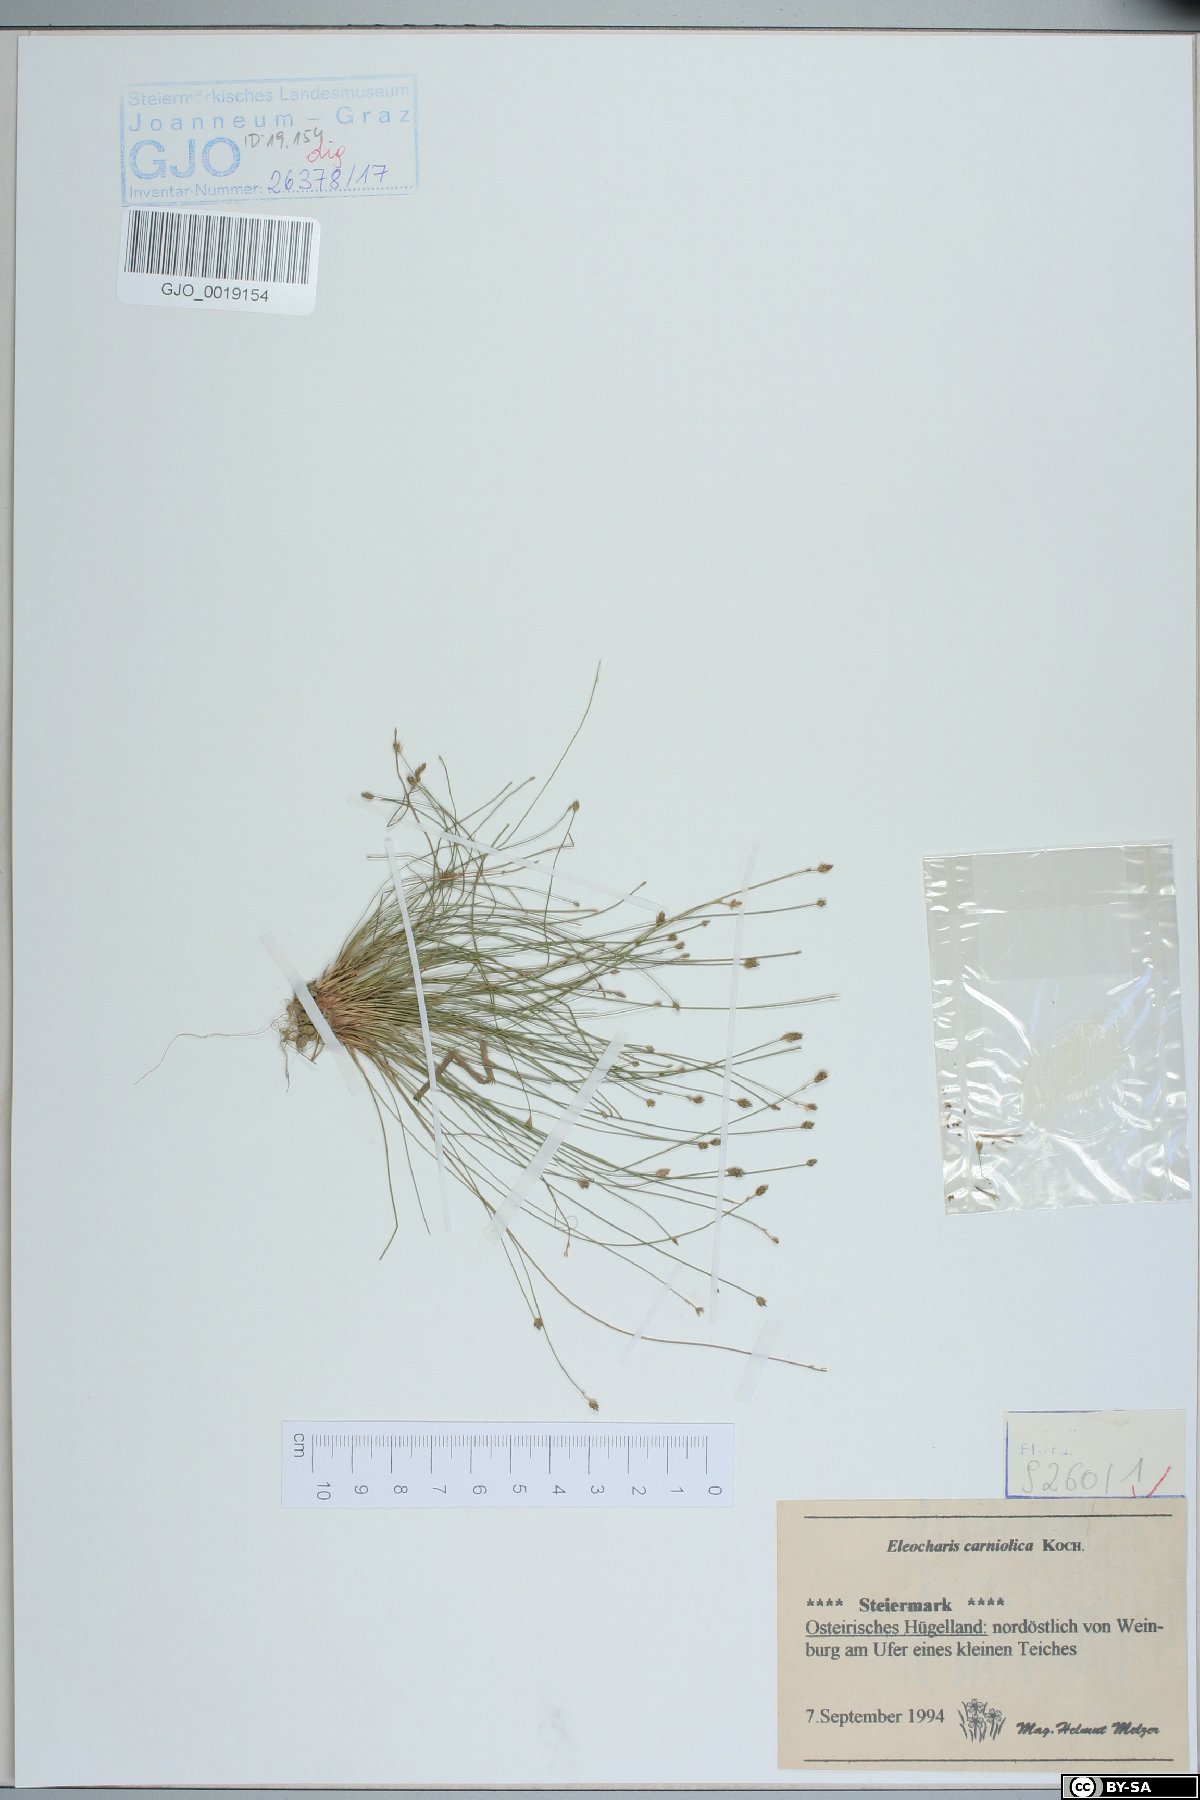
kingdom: Plantae
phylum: Tracheophyta
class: Liliopsida
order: Poales
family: Cyperaceae
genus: Eleocharis
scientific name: Eleocharis carniolica
